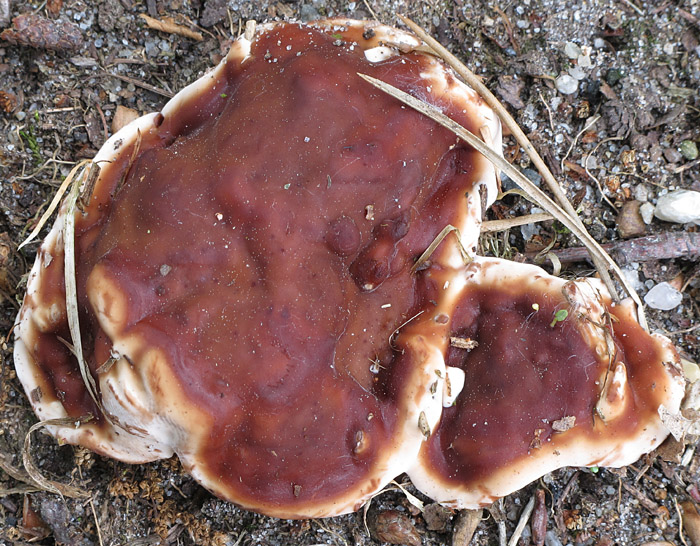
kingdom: Fungi
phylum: Ascomycota
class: Pezizomycetes
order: Pezizales
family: Rhizinaceae
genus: Rhizina
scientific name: Rhizina undulata
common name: rodmorkel
